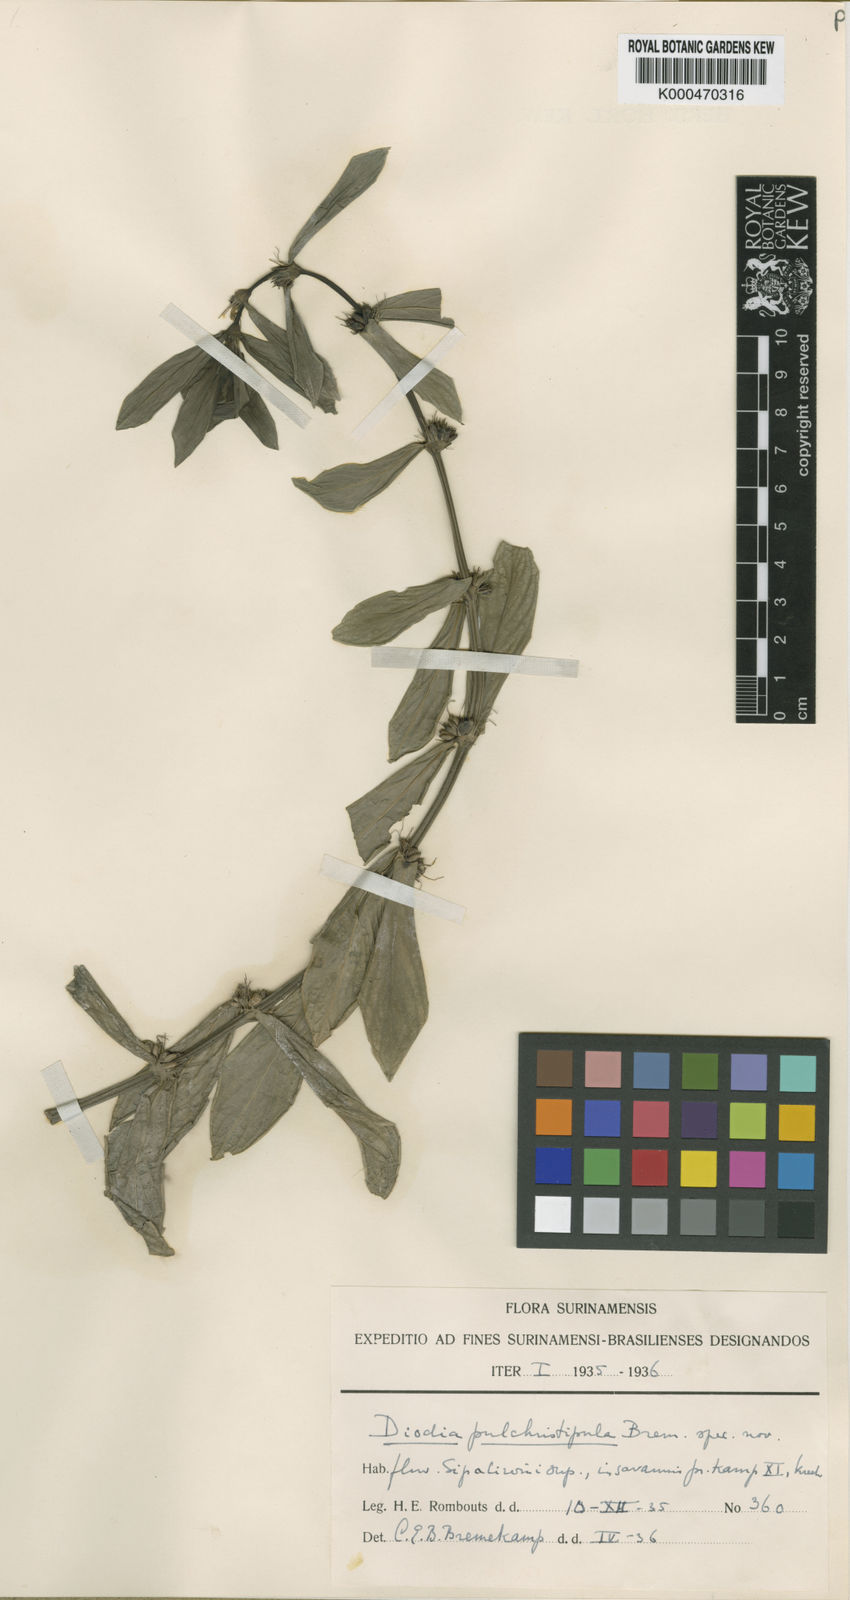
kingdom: Plantae
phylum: Tracheophyta
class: Magnoliopsida
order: Gentianales
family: Rubiaceae
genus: Spermacoce
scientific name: Spermacoce pulchristipula
